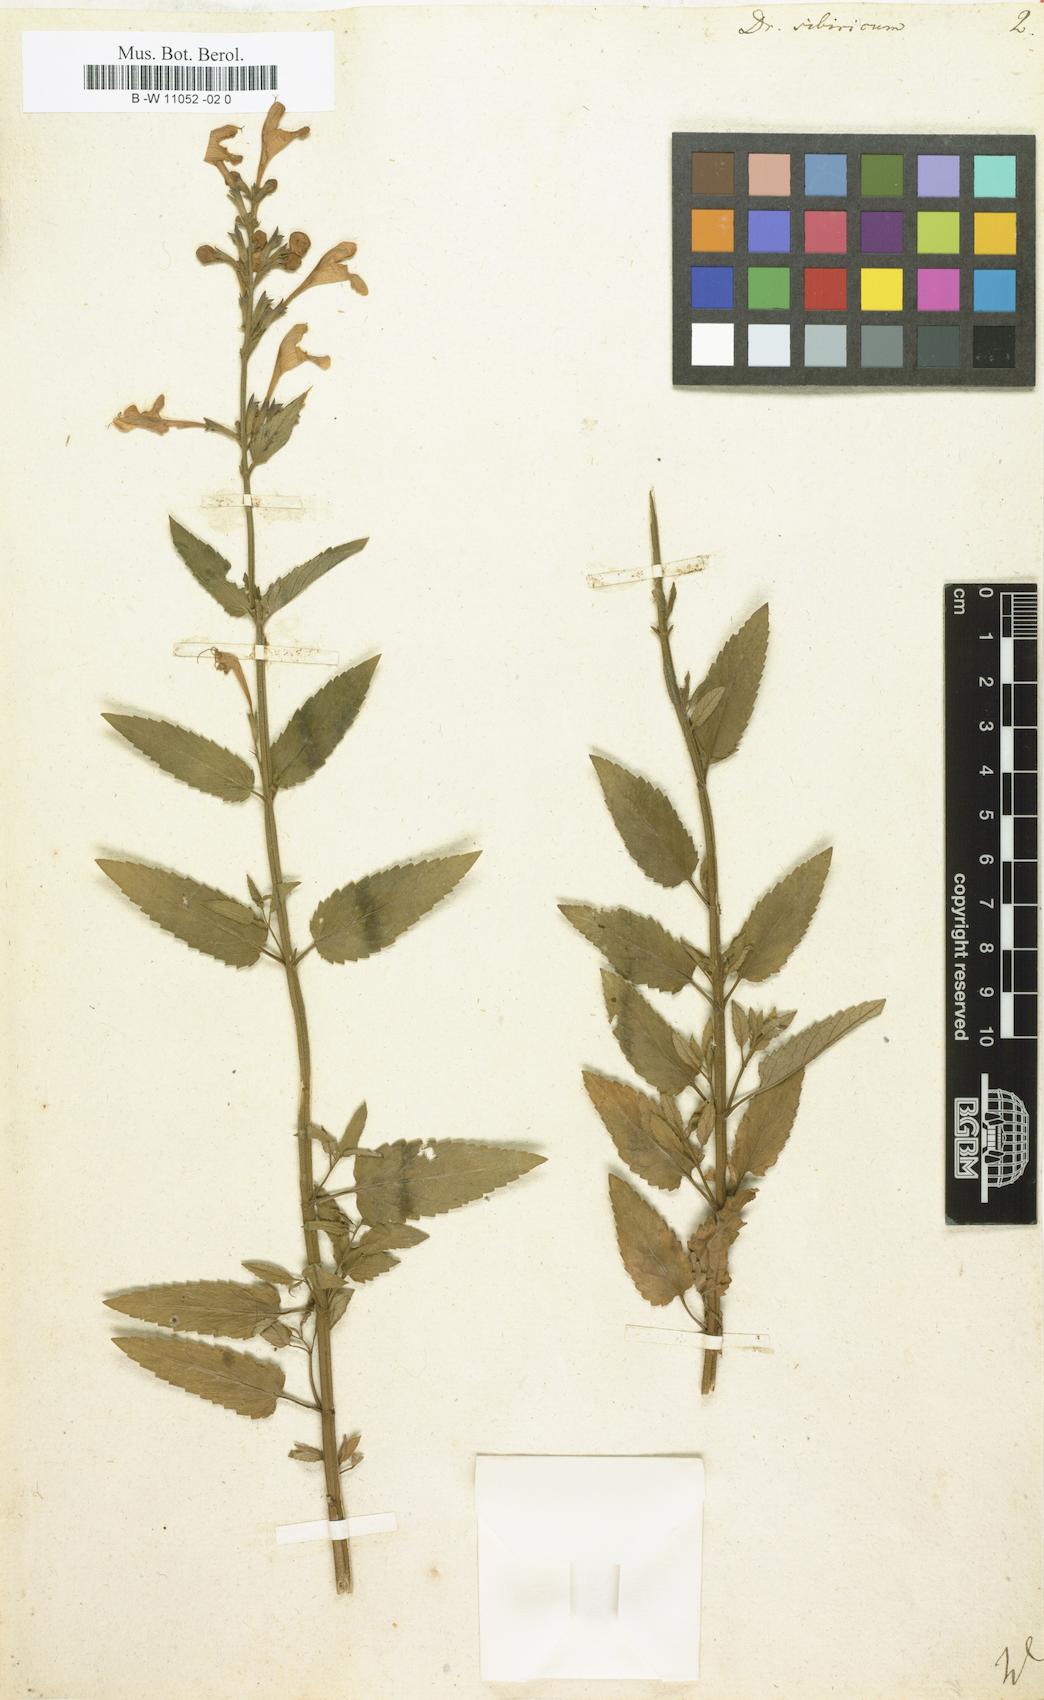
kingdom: Plantae
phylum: Tracheophyta
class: Magnoliopsida
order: Lamiales
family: Lamiaceae
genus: Nepeta
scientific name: Nepeta sibirica
